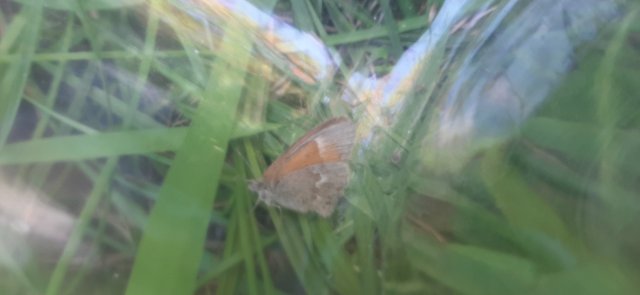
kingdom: Animalia
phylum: Arthropoda
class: Insecta
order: Lepidoptera
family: Nymphalidae
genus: Coenonympha
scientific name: Coenonympha california
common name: California Ringlet
